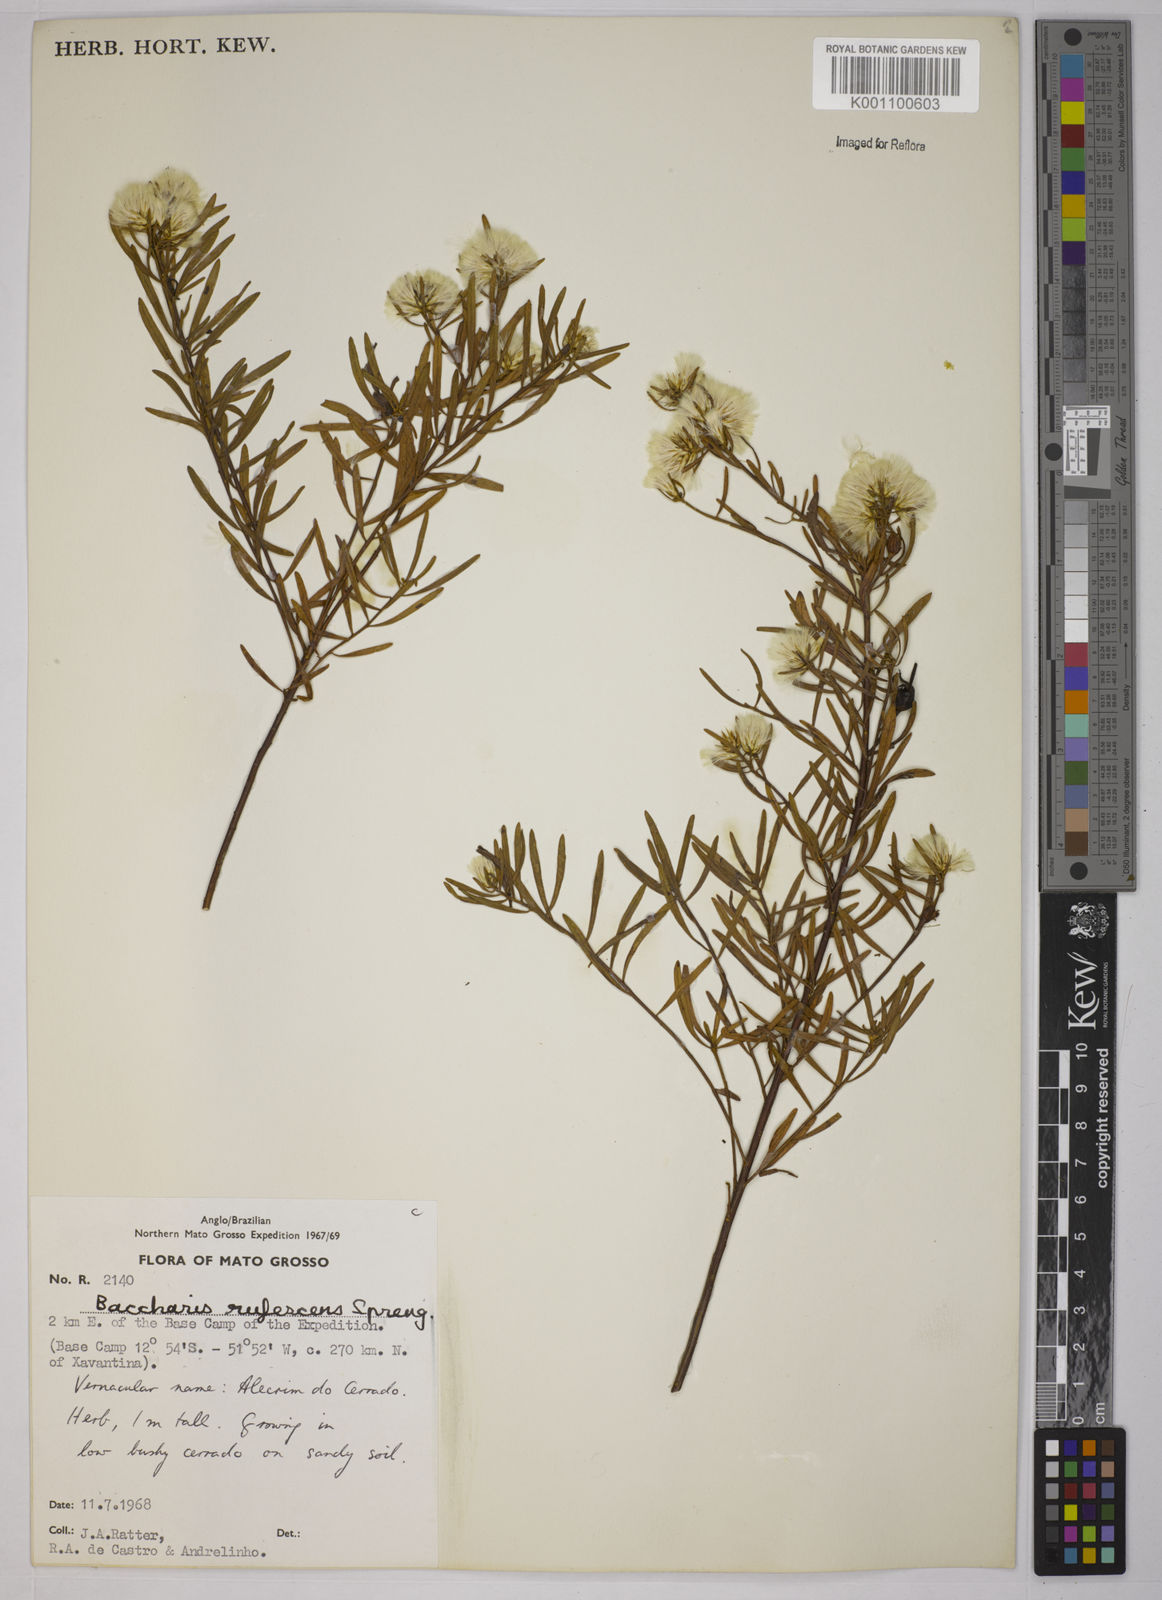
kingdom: Plantae
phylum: Tracheophyta
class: Magnoliopsida
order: Asterales
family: Asteraceae
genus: Baccharis
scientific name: Baccharis rufescens
